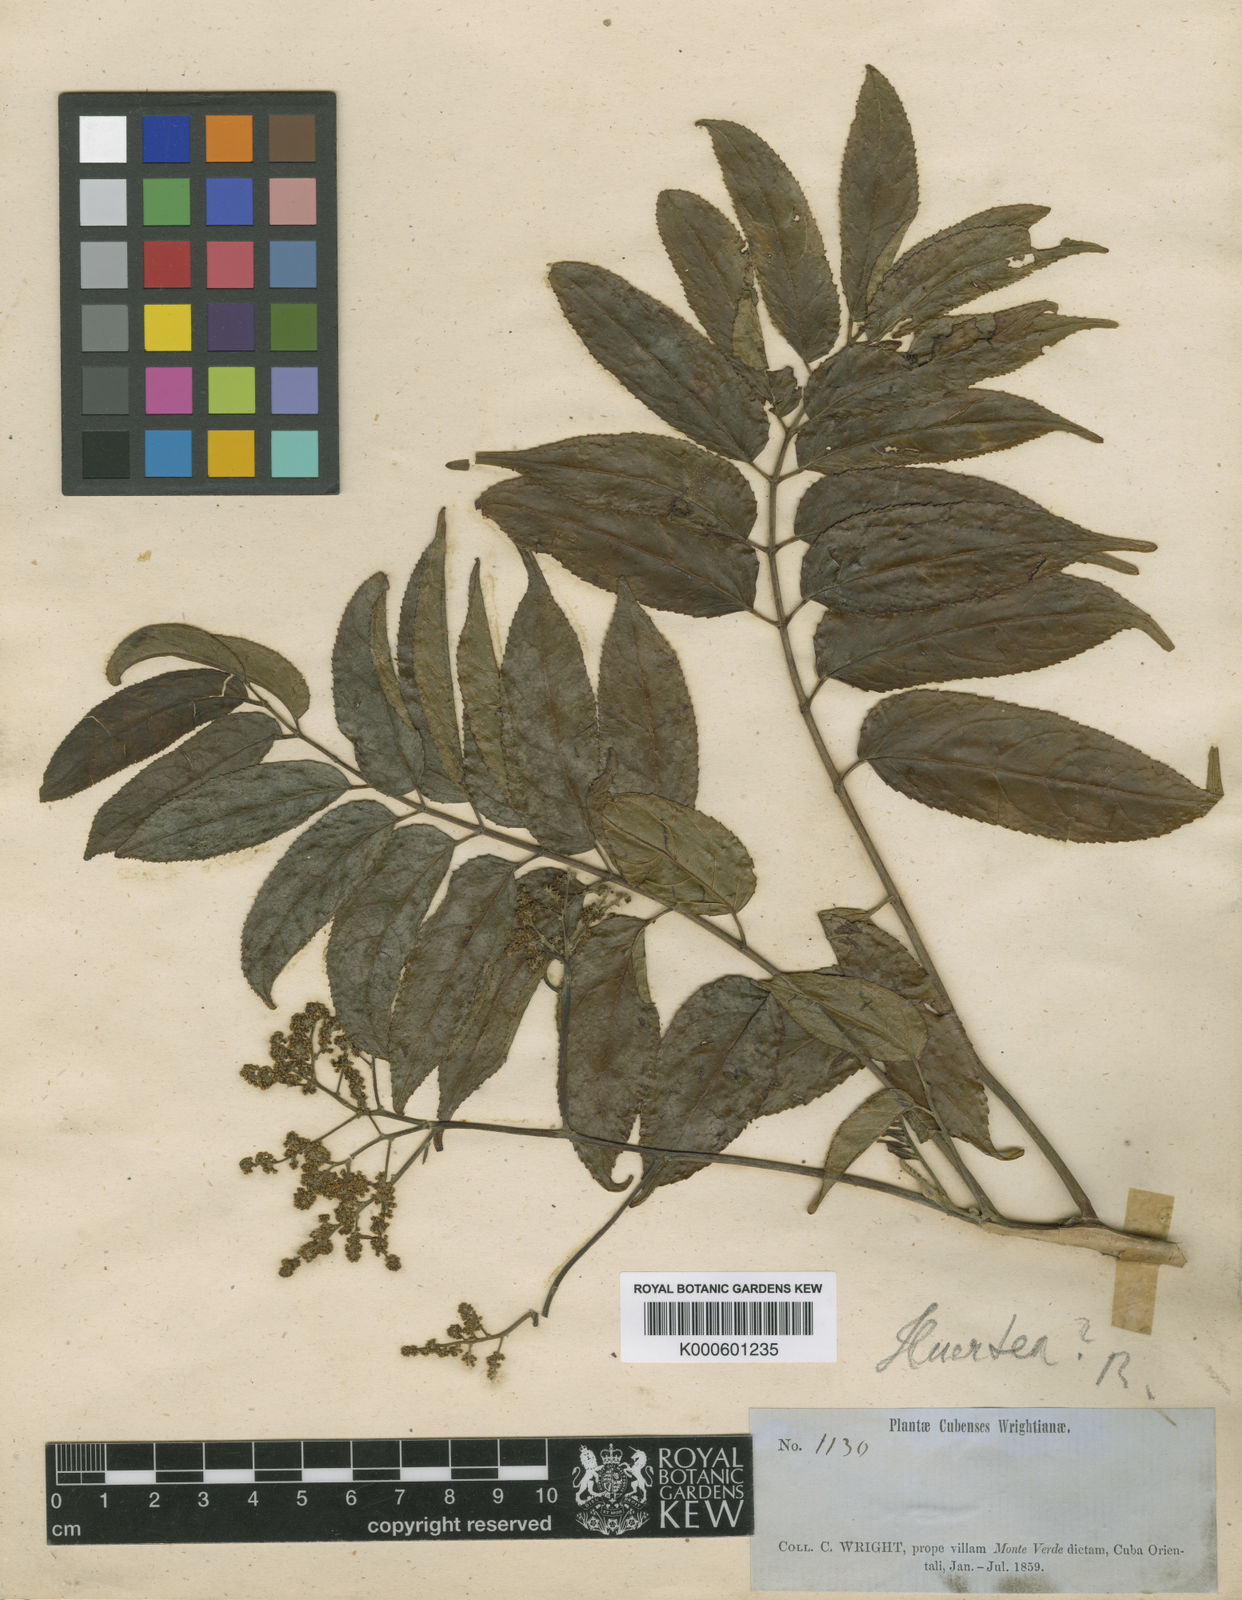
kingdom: Plantae
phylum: Tracheophyta
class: Magnoliopsida
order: Huerteales
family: Tapisciaceae
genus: Huertea
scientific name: Huertea cubensis
